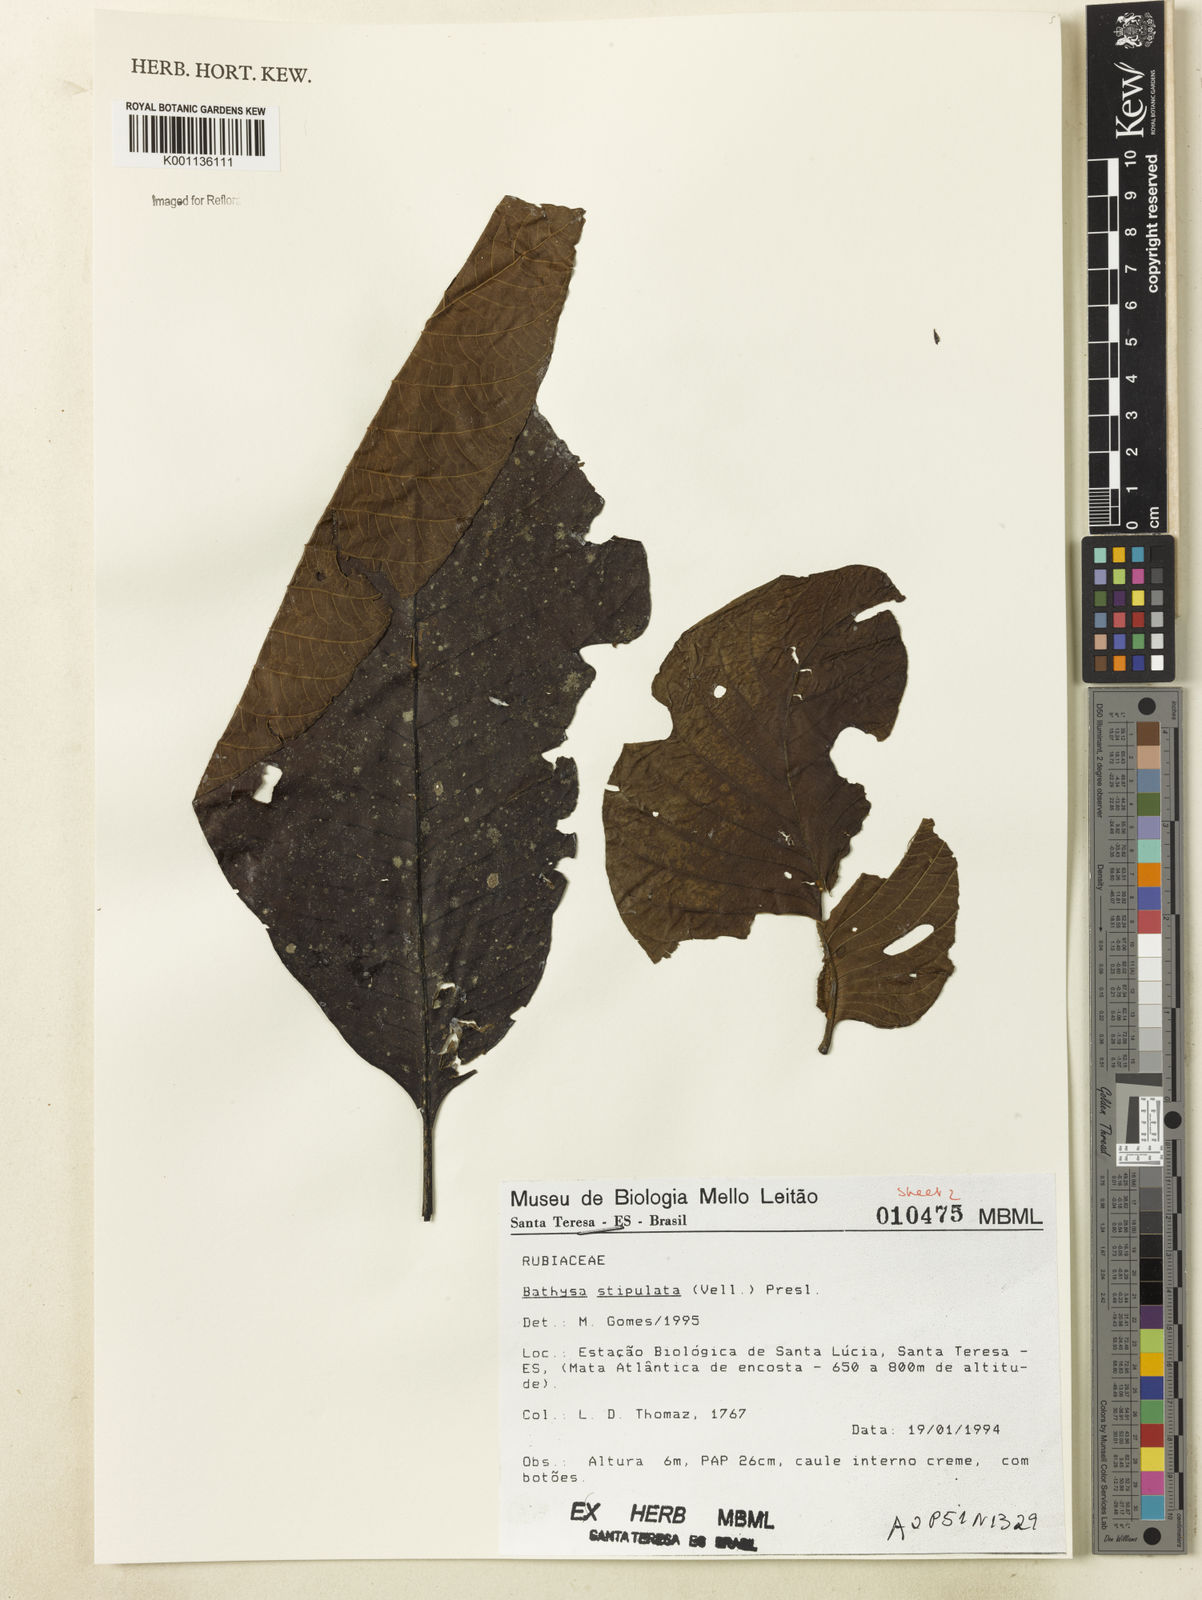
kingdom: Plantae
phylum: Tracheophyta
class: Magnoliopsida
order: Gentianales
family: Rubiaceae
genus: Bathysa
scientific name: Bathysa stipulata
